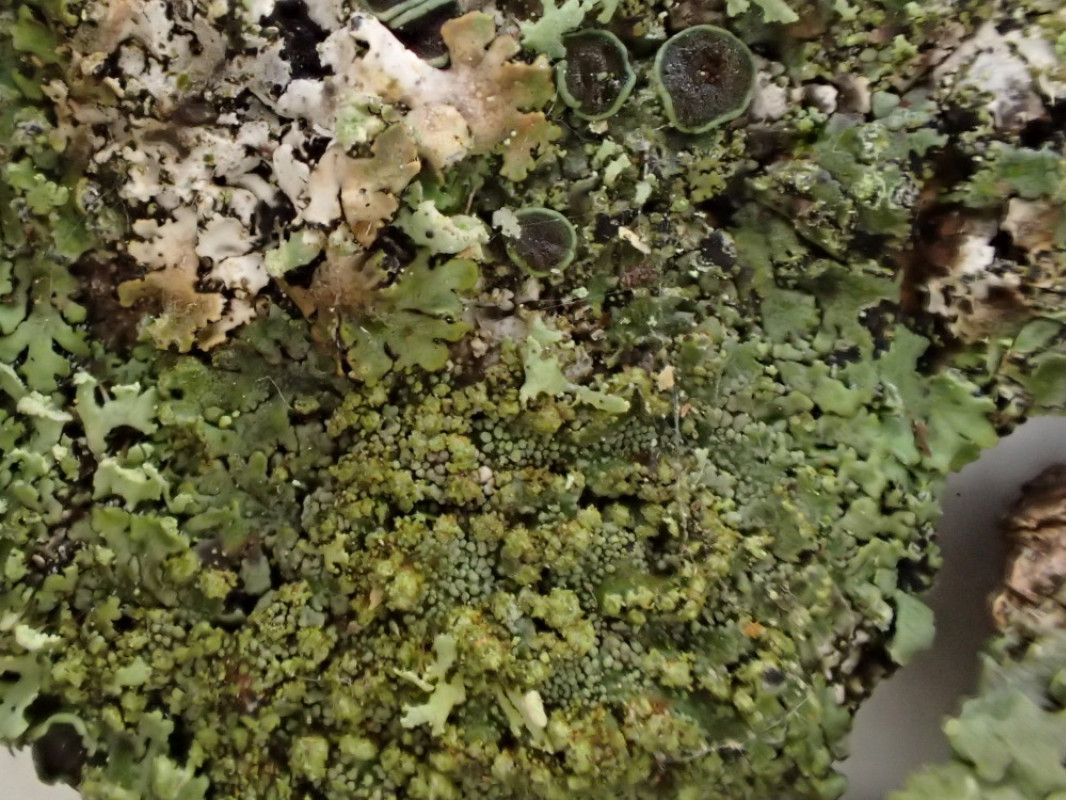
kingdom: Fungi
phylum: Ascomycota
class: Lecanoromycetes
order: Caliciales
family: Physciaceae
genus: Phaeophyscia
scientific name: Phaeophyscia orbicularis
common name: grågrøn rosetlav
